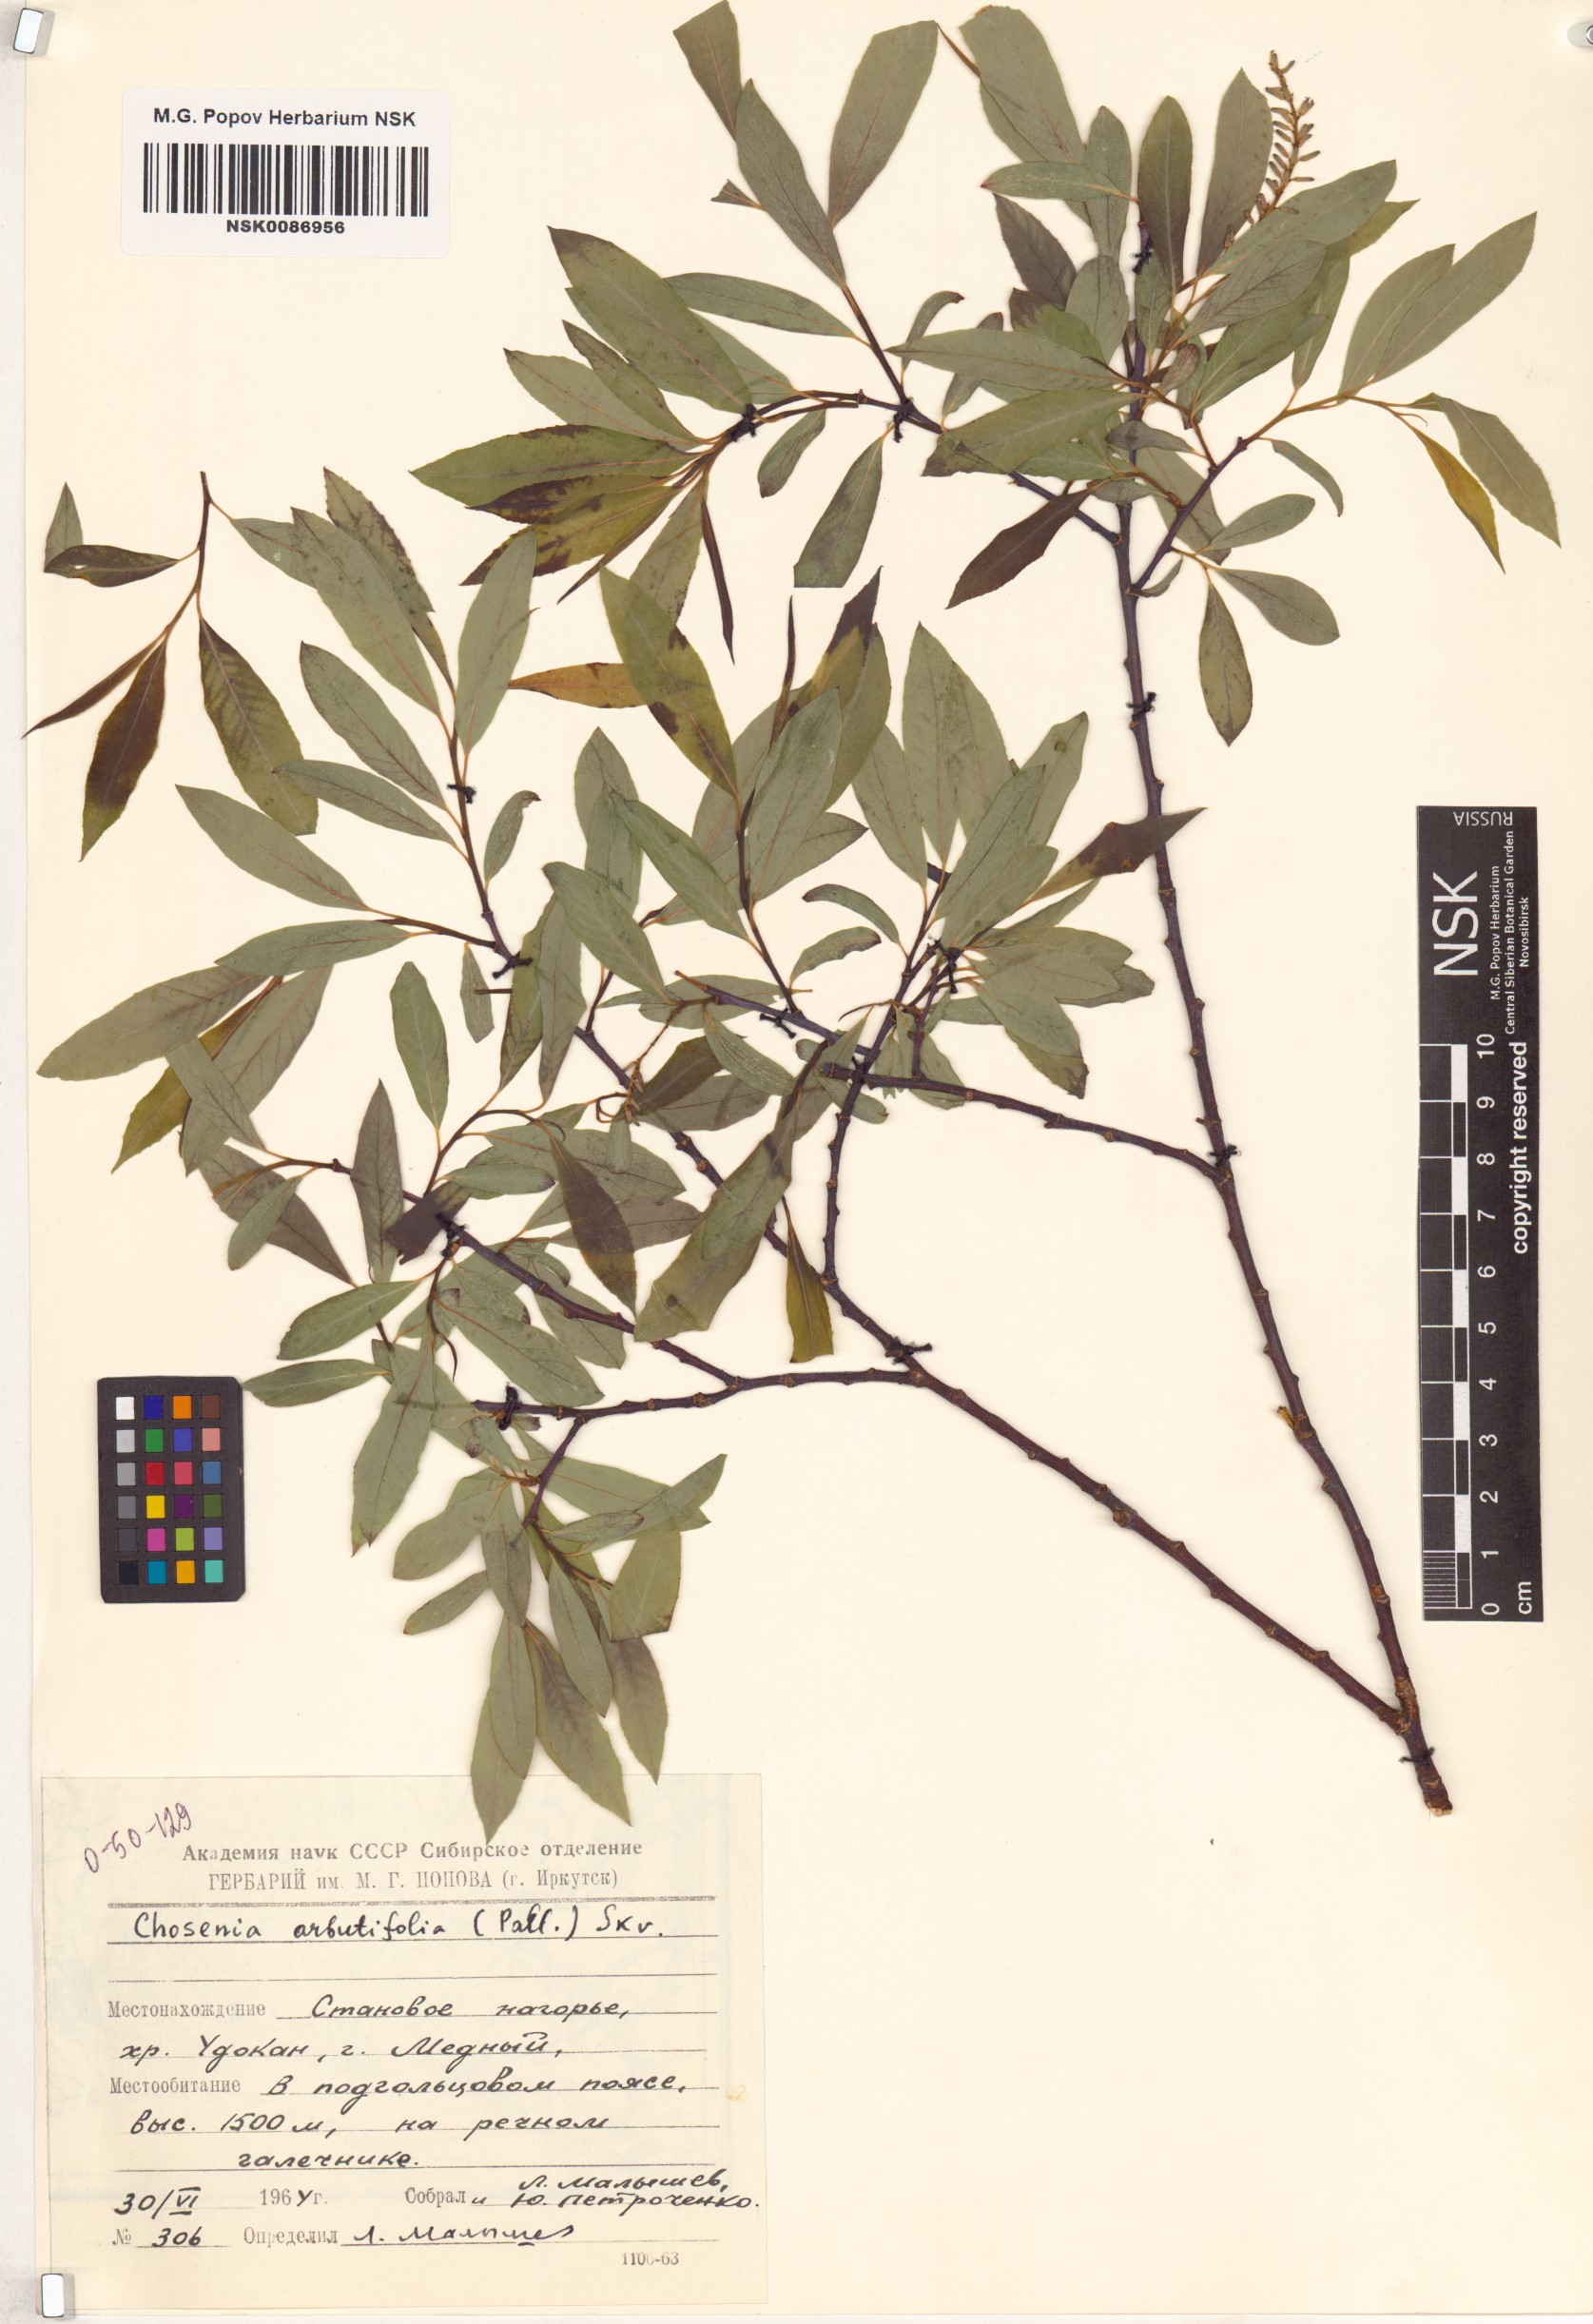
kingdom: Plantae
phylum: Tracheophyta
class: Magnoliopsida
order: Malpighiales
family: Salicaceae
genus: Chosenia
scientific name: Chosenia arbutifolia
